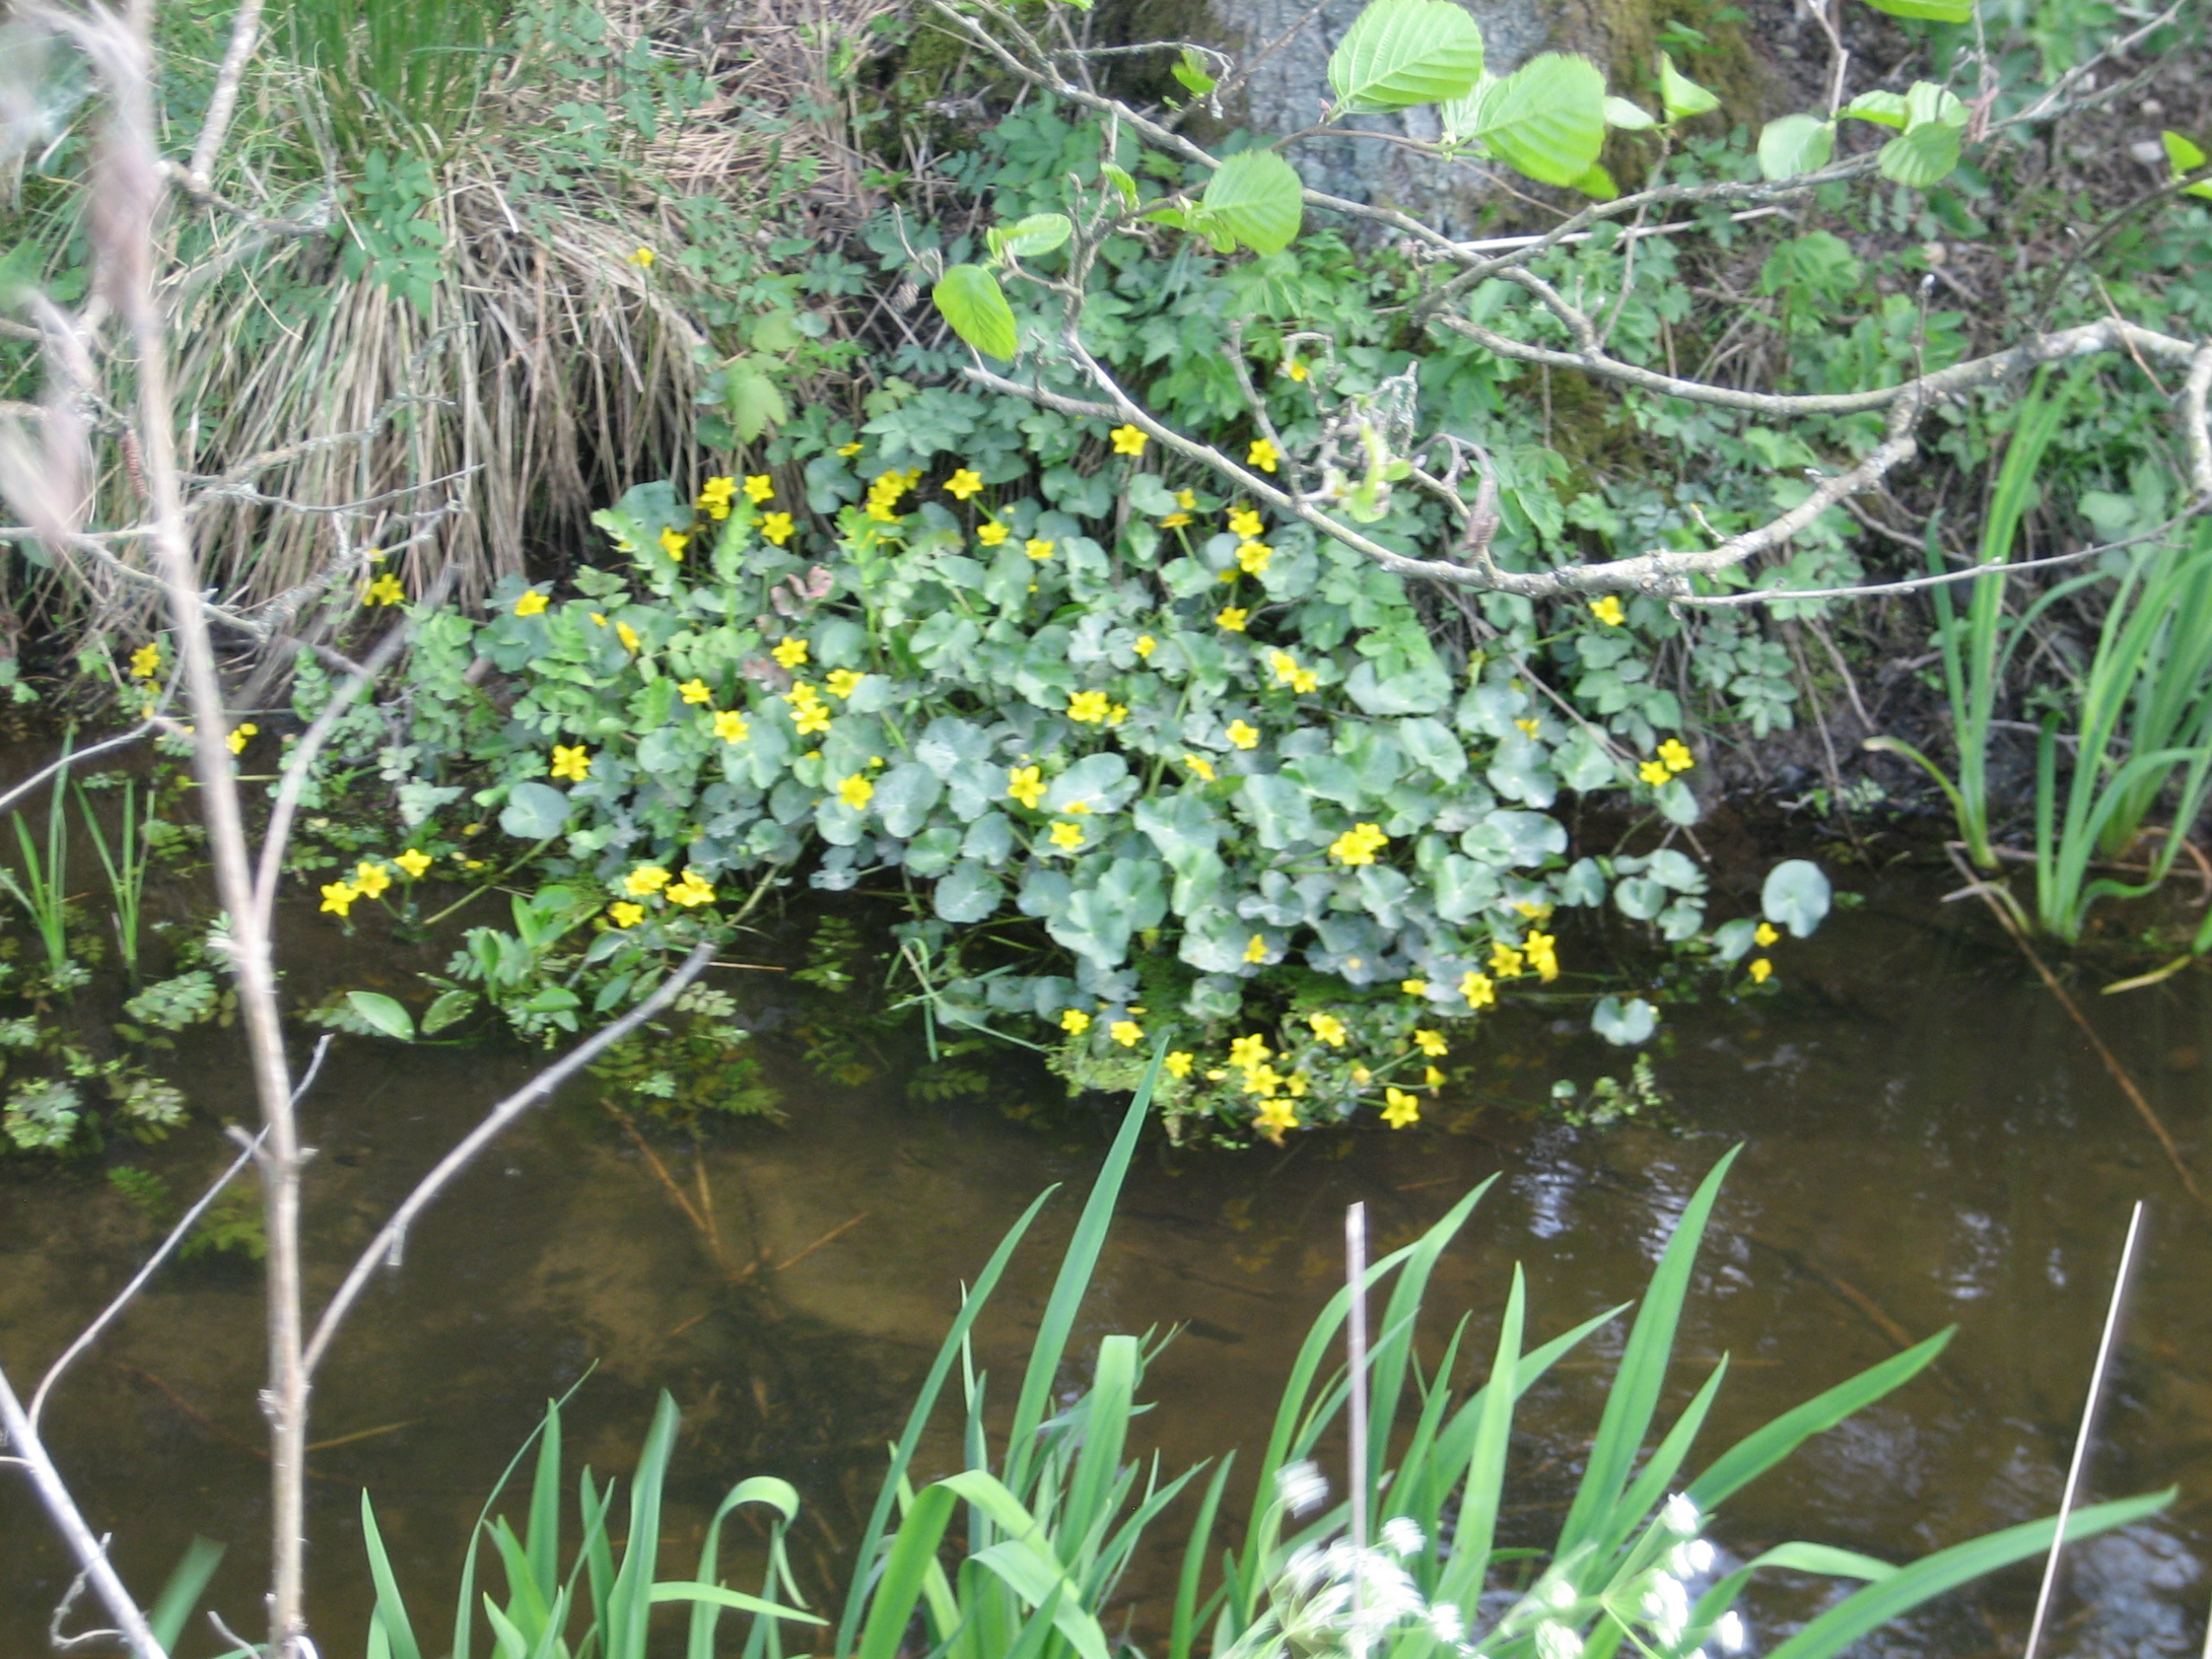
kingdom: Plantae
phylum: Tracheophyta
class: Magnoliopsida
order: Ranunculales
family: Ranunculaceae
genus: Caltha
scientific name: Caltha palustris
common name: Eng-kabbeleje
